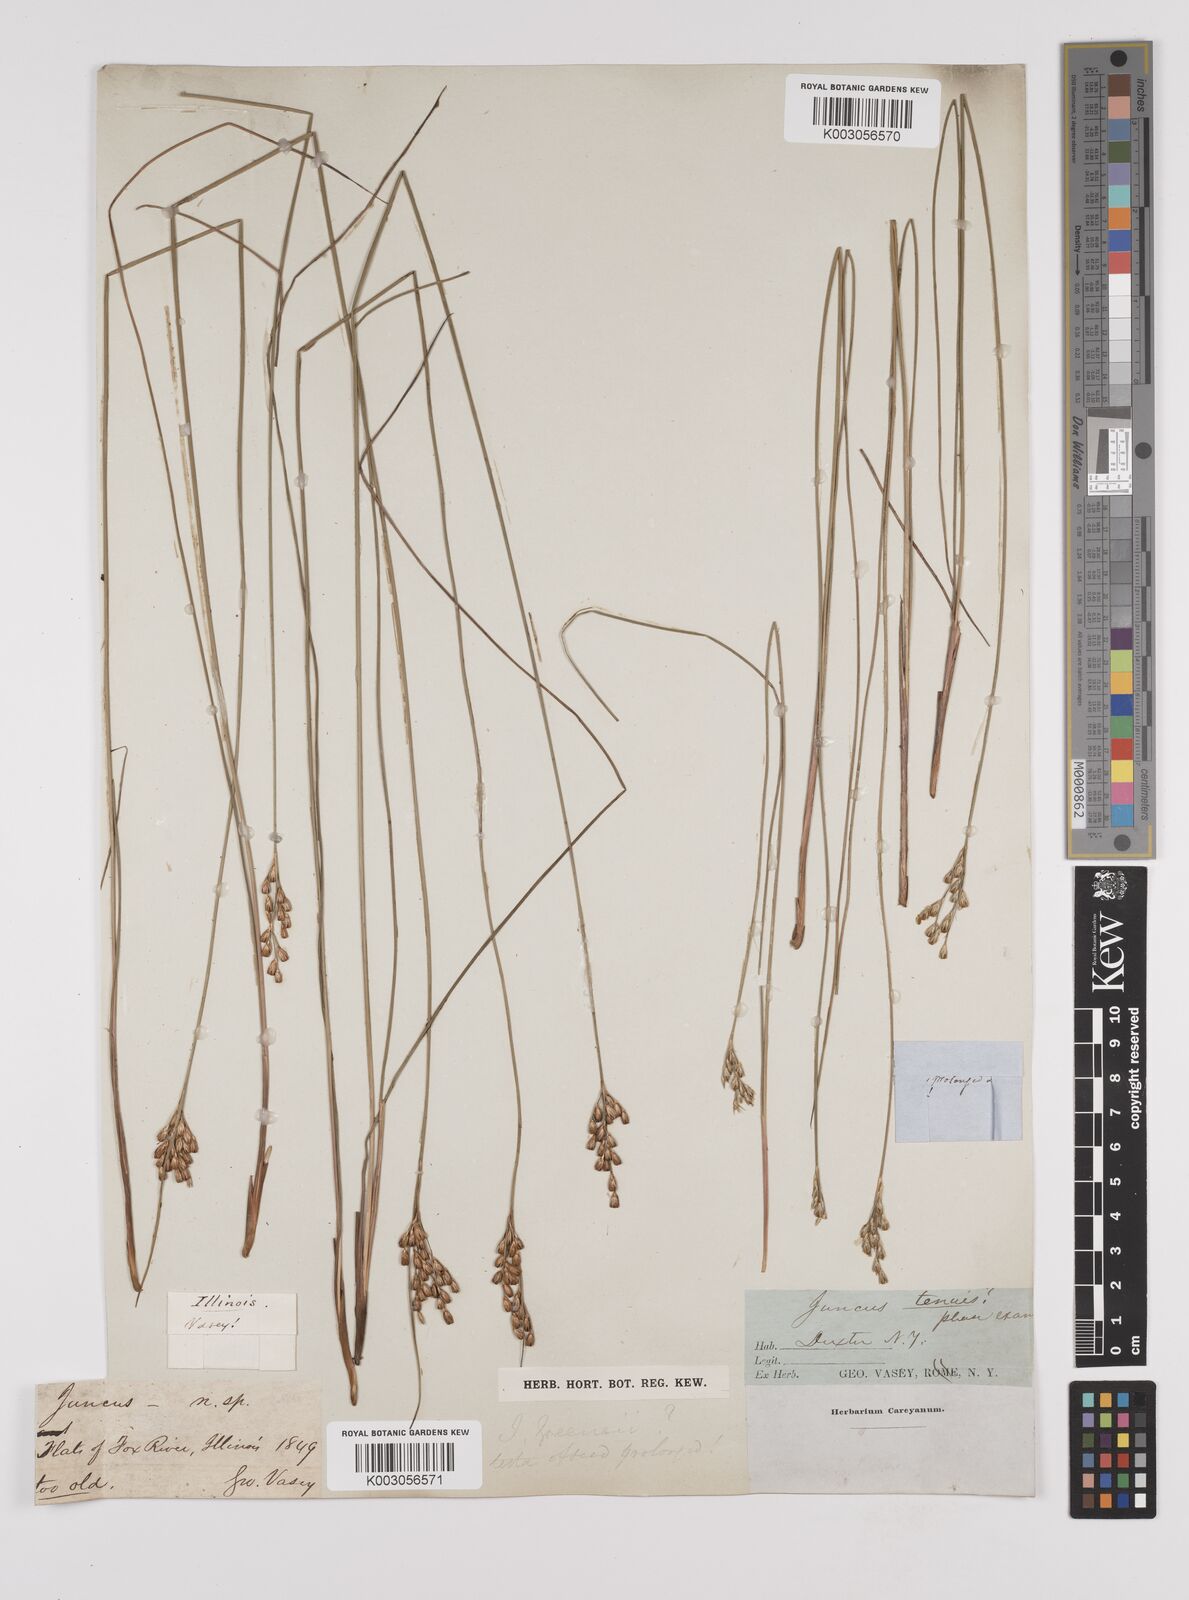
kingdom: Plantae
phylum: Tracheophyta
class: Liliopsida
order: Poales
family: Juncaceae
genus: Juncus
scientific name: Juncus greenei
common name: Greene's rush
